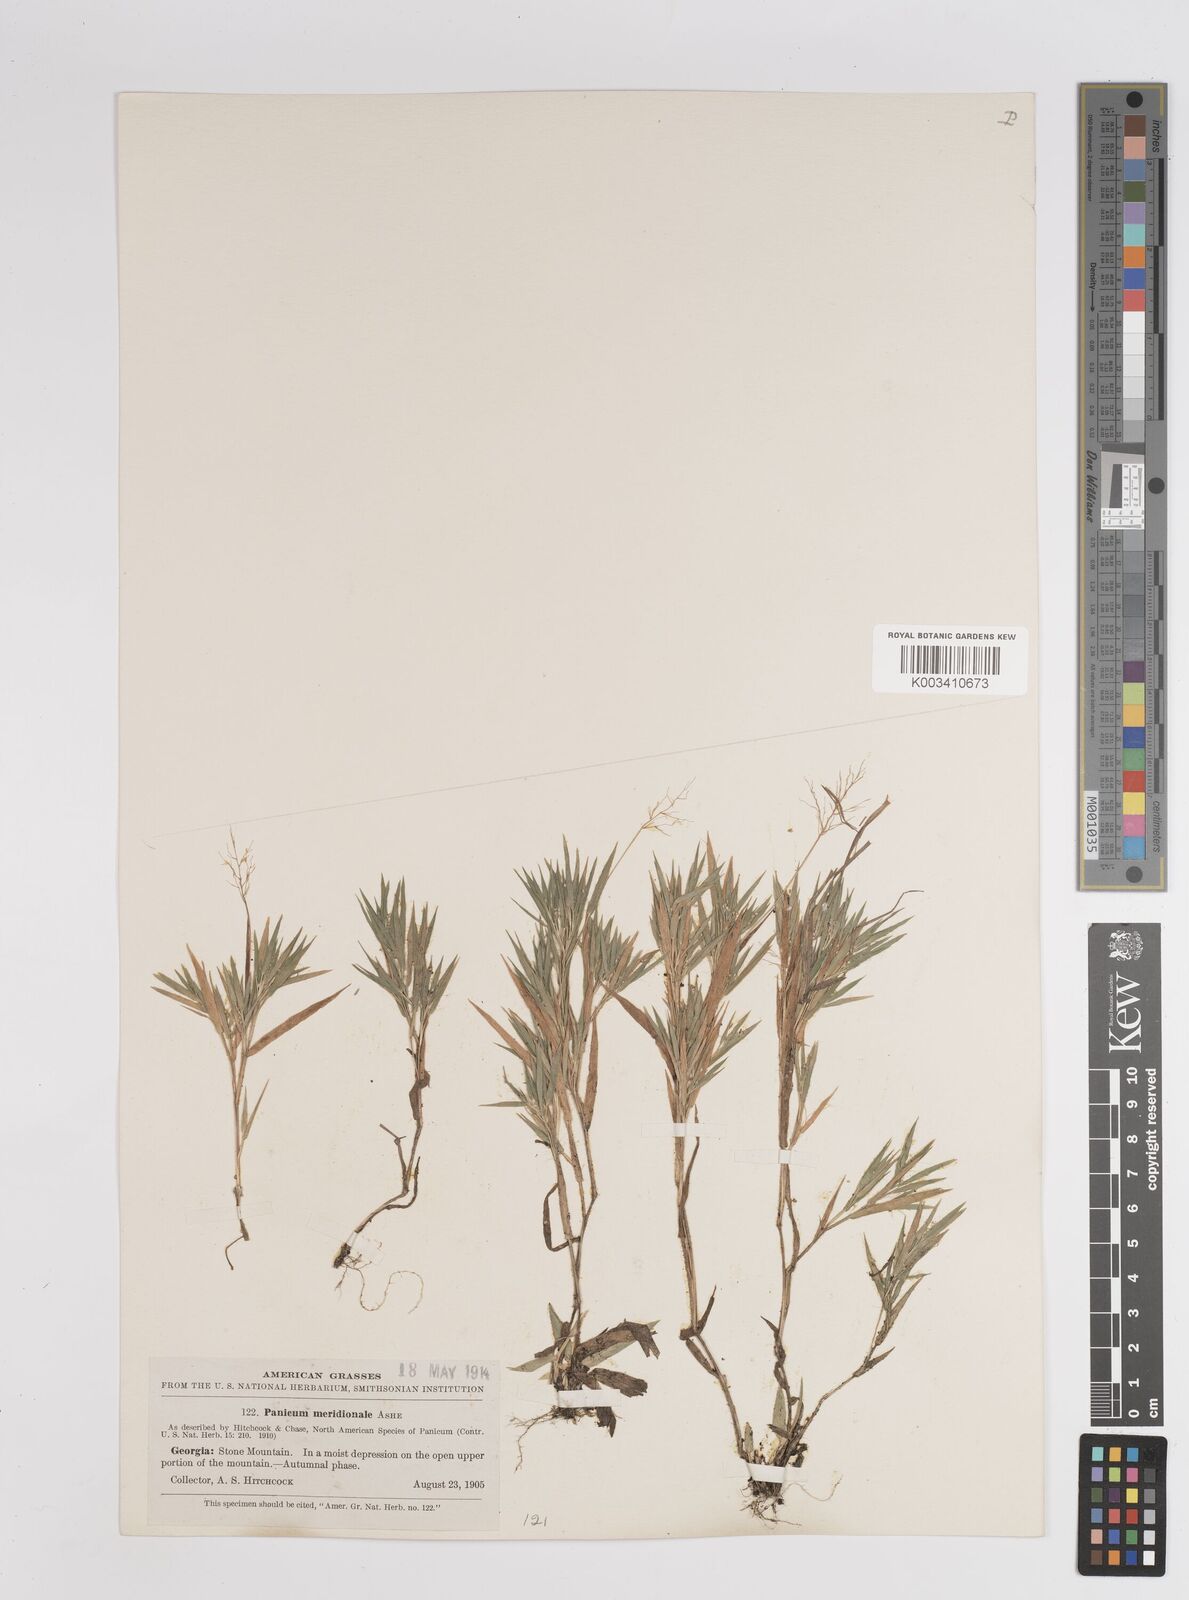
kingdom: Plantae
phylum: Tracheophyta
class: Liliopsida
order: Poales
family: Poaceae
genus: Dichanthelium
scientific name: Dichanthelium meridionale
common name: Mat panicgrass
